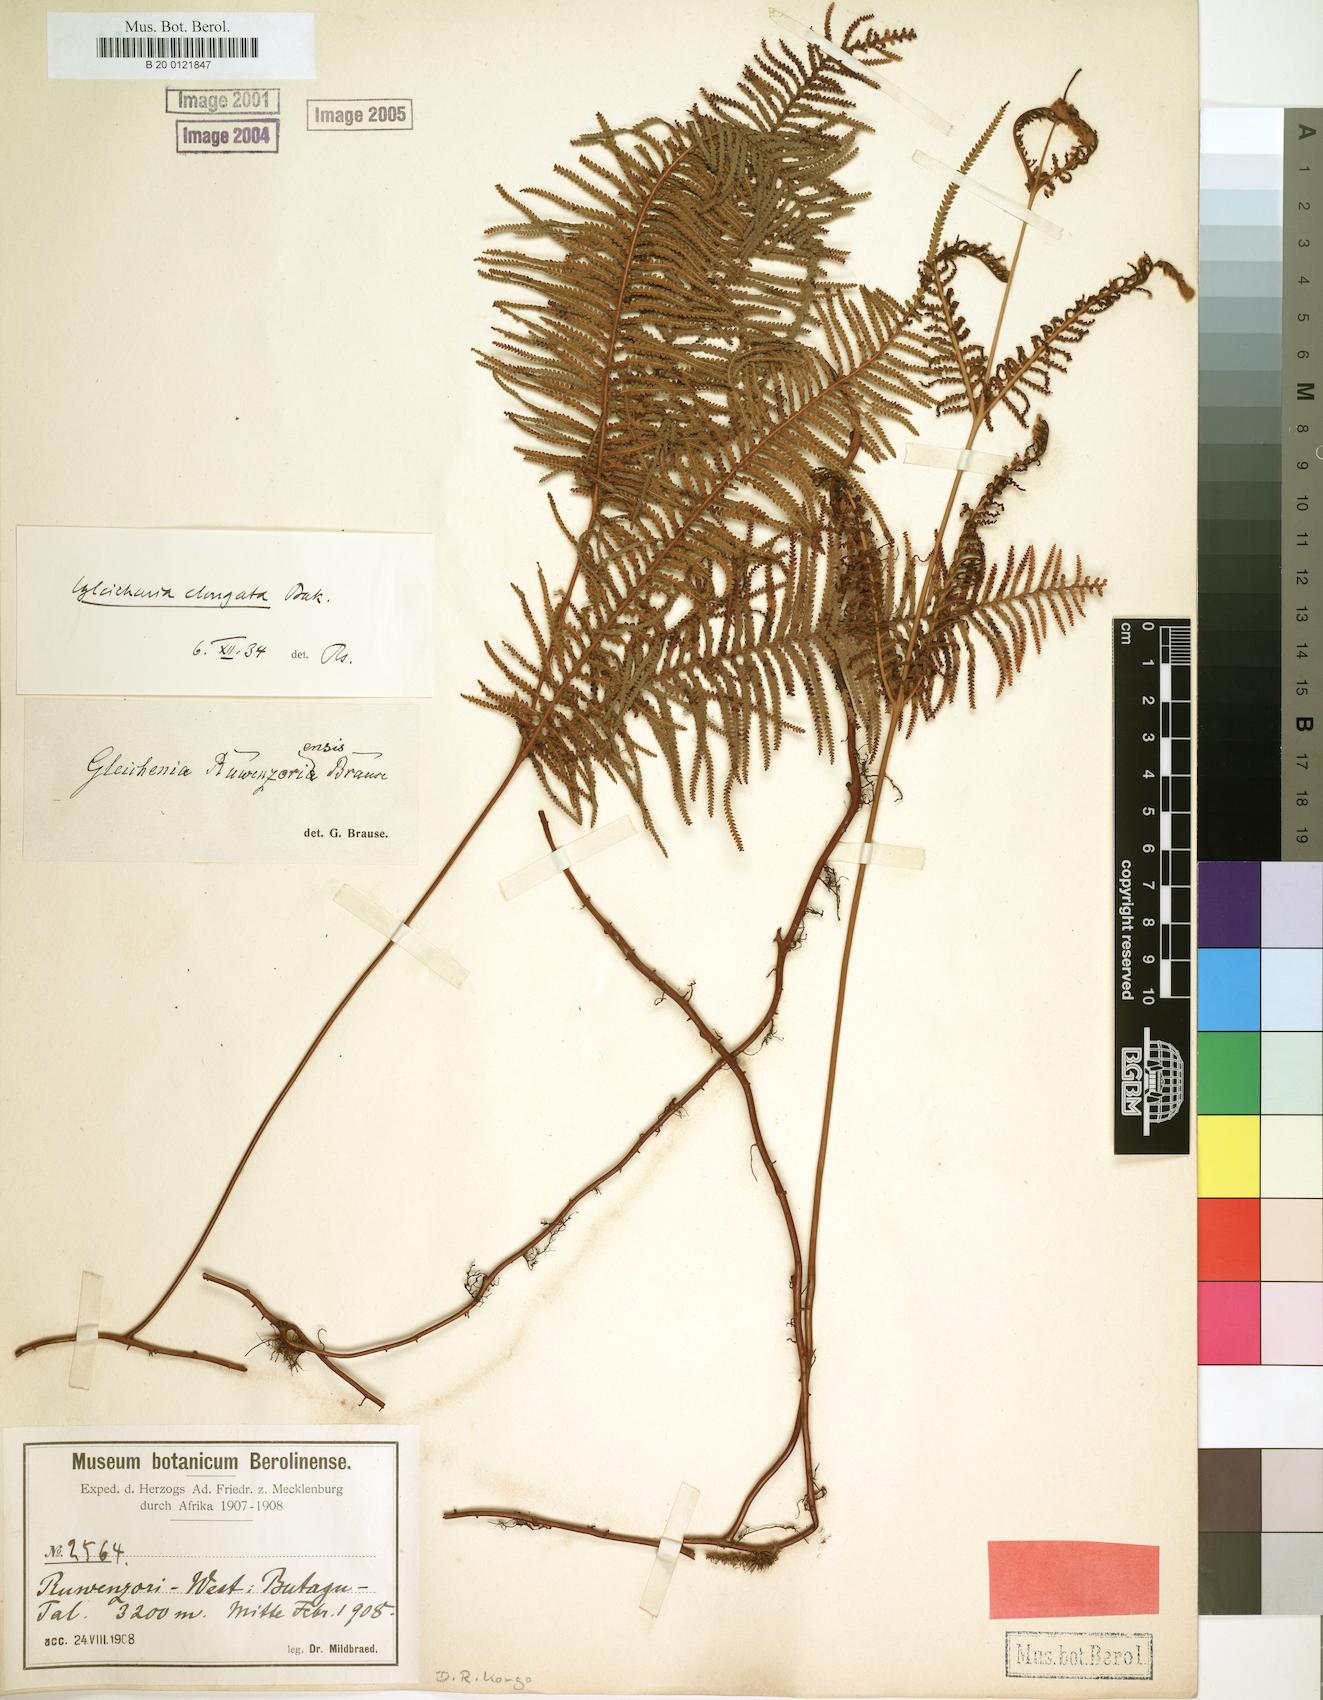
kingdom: Plantae
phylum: Tracheophyta
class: Polypodiopsida
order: Gleicheniales
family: Gleicheniaceae
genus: Gleichenia
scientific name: Gleichenia elongata
